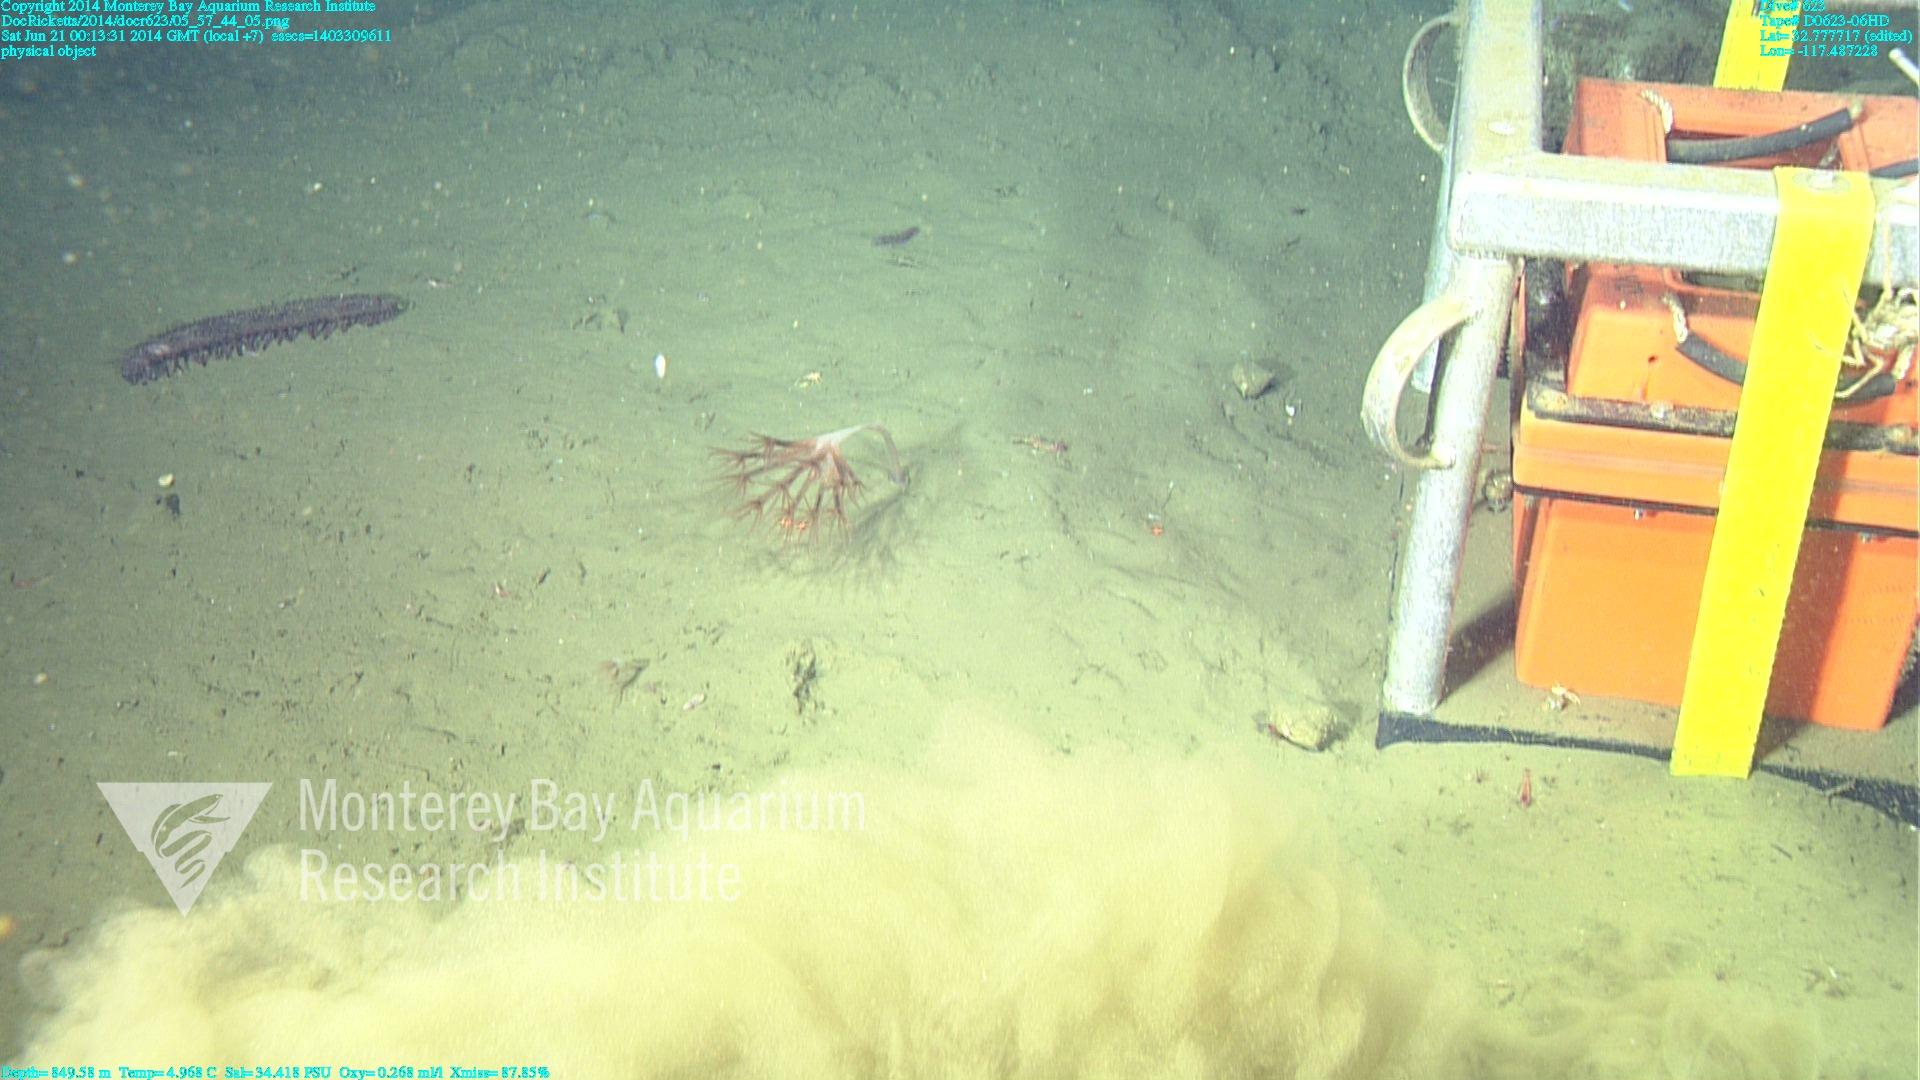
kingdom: Animalia
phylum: Cnidaria
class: Anthozoa
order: Scleralcyonacea
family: Umbellulidae
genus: Umbellula
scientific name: Umbellula lindahli
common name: Lindahl's droopy sea pen
